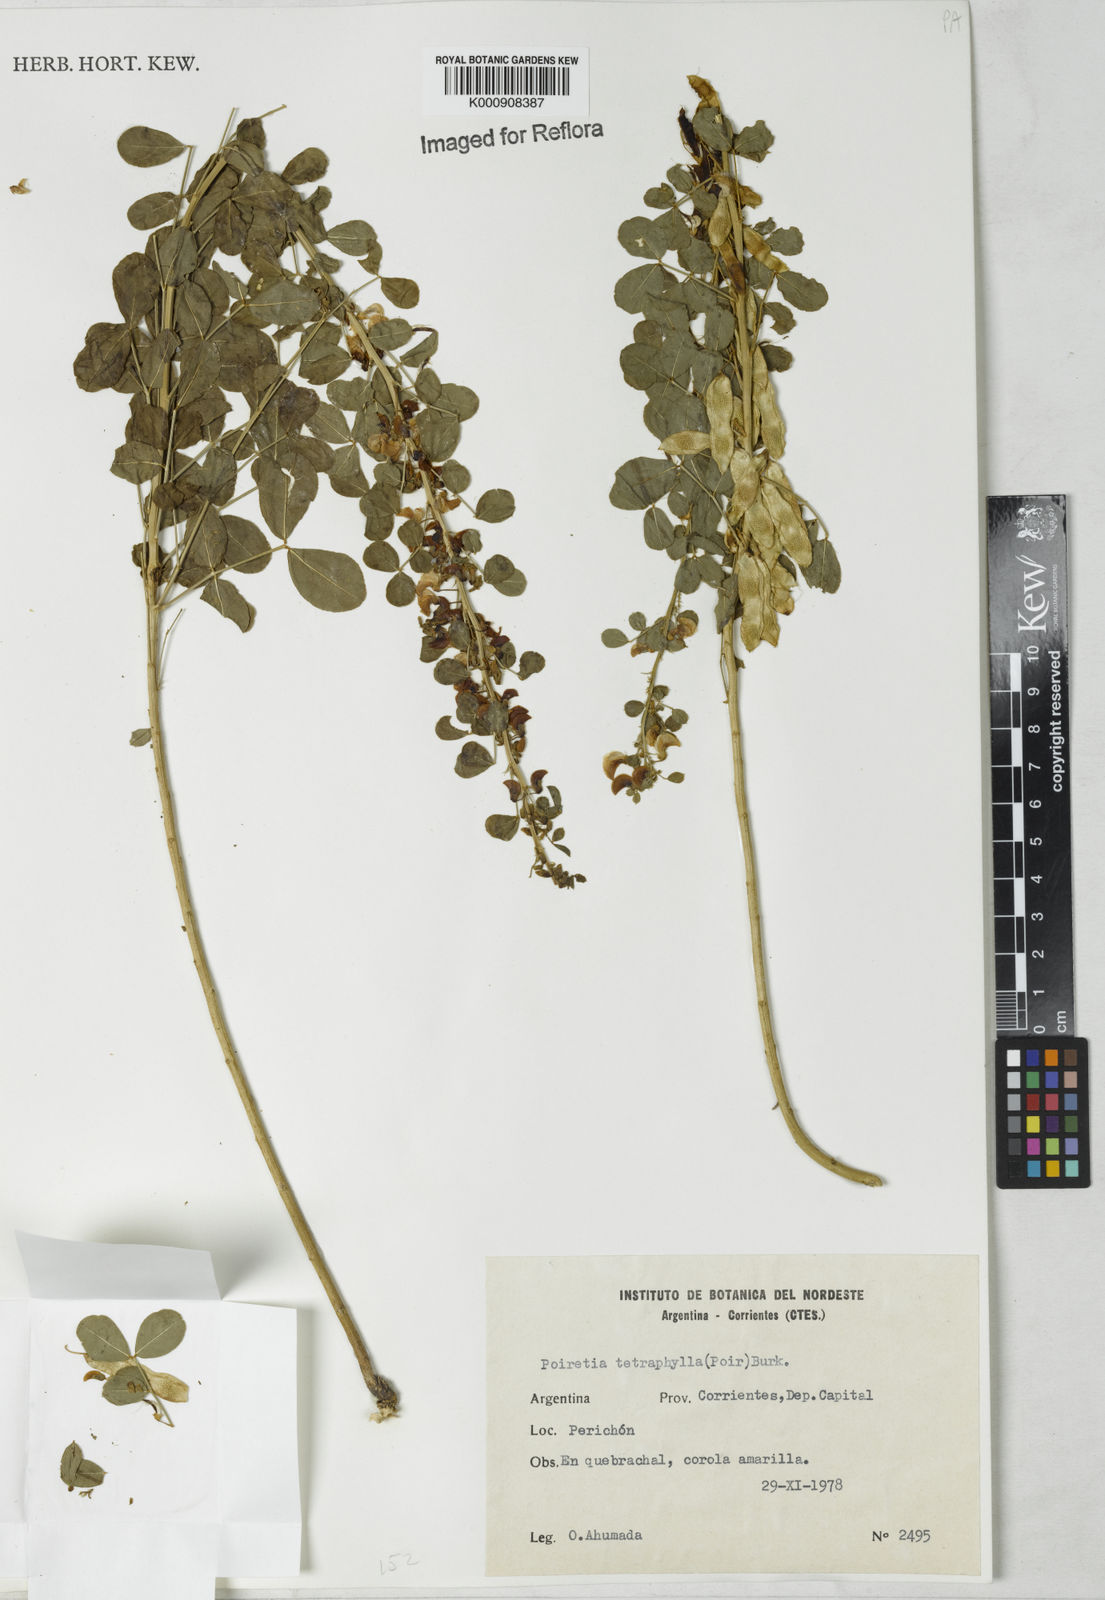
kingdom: Plantae
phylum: Tracheophyta
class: Magnoliopsida
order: Fabales
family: Fabaceae
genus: Poiretia
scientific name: Poiretia tetraphylla
